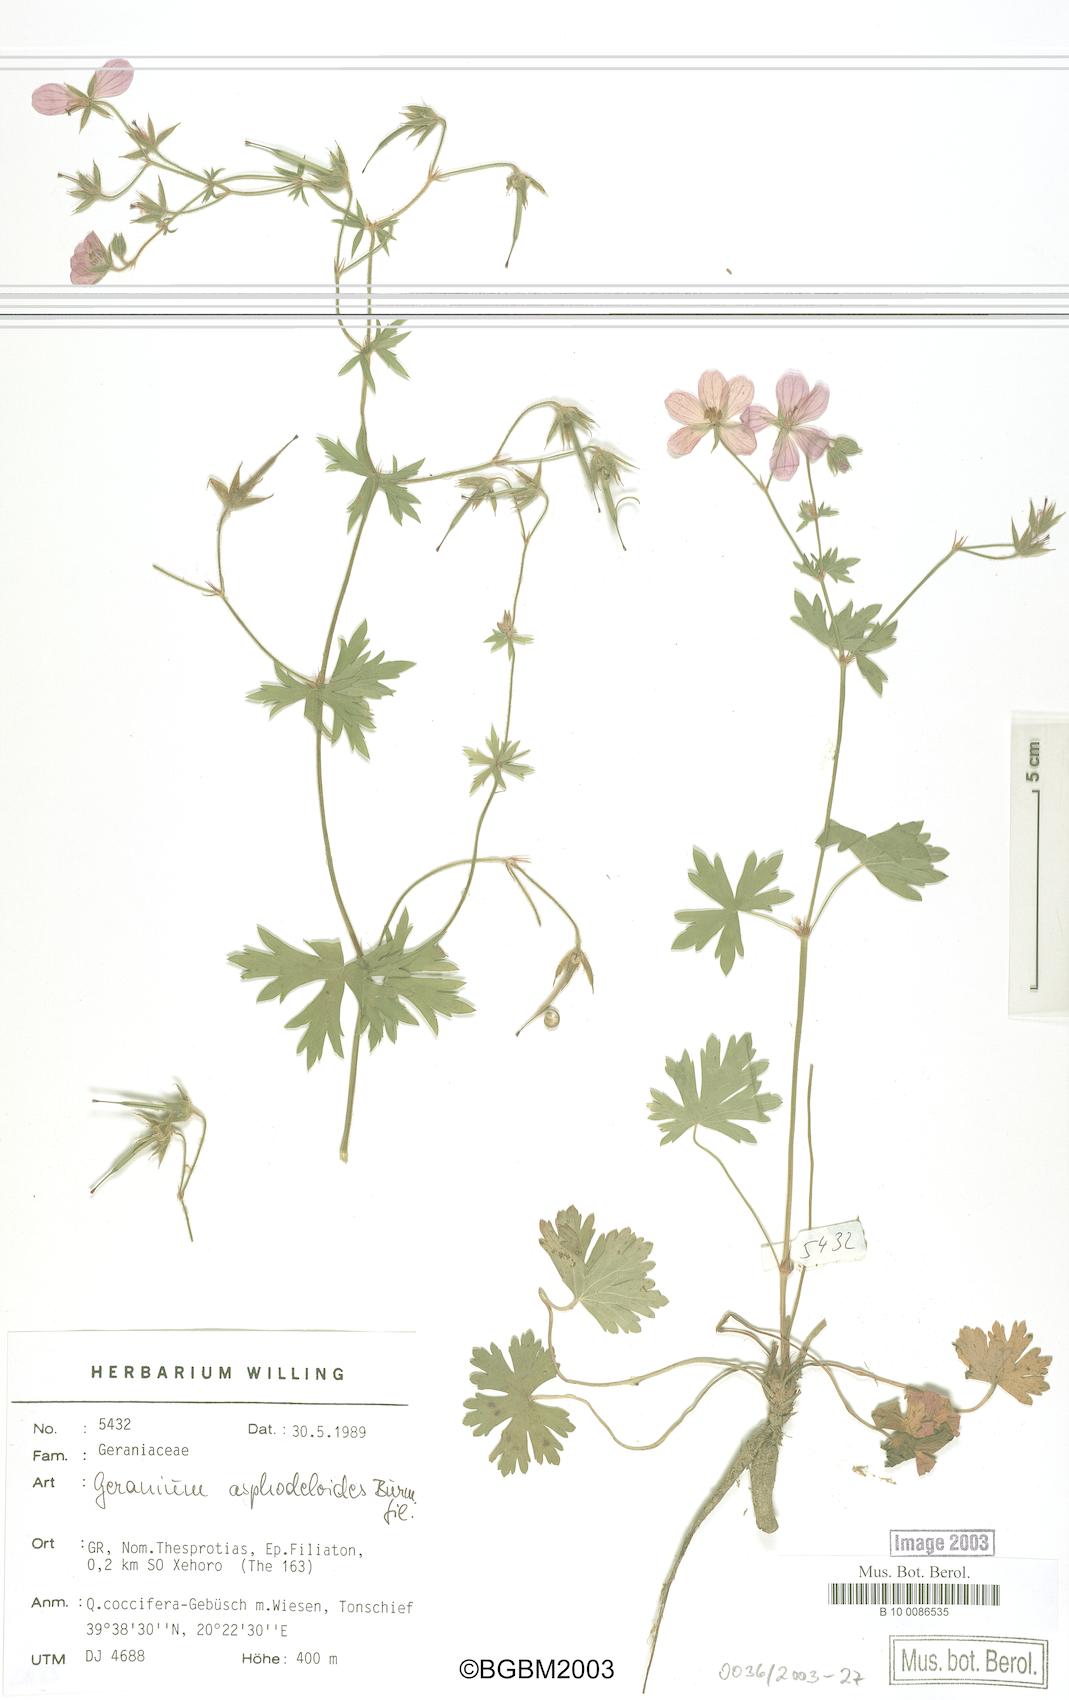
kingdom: Plantae
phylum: Tracheophyta
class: Magnoliopsida
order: Geraniales
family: Geraniaceae
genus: Geranium
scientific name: Geranium asphodeloides
